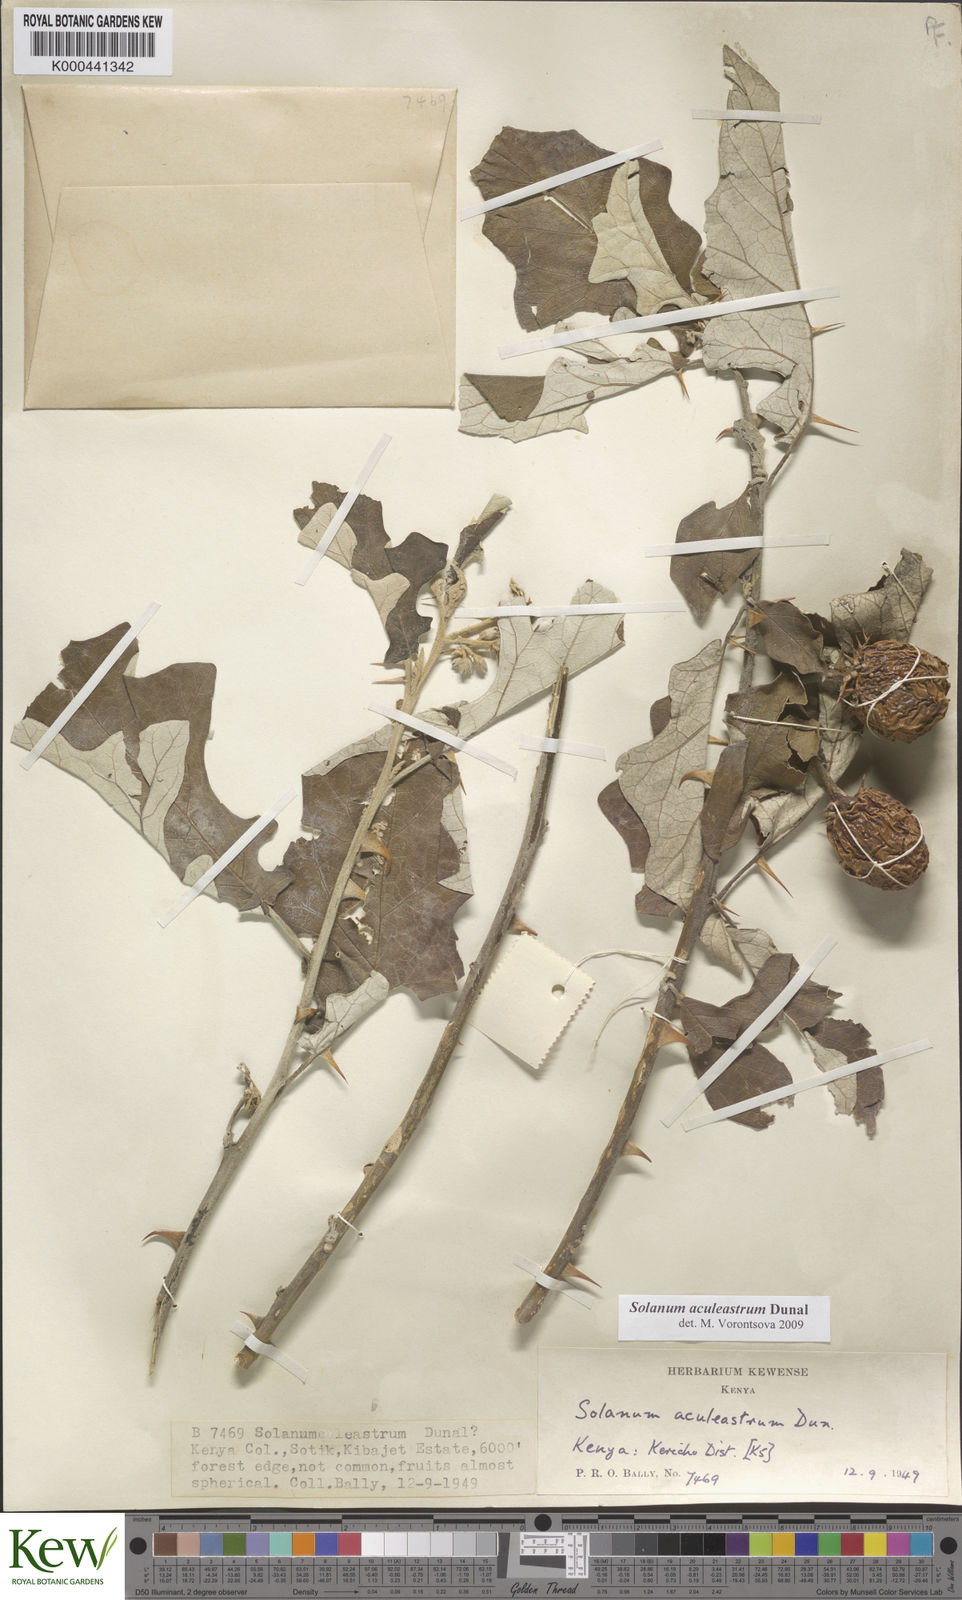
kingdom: Plantae
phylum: Tracheophyta
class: Magnoliopsida
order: Solanales
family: Solanaceae
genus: Solanum
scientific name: Solanum aculeastrum
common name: Goat bitter-apple
